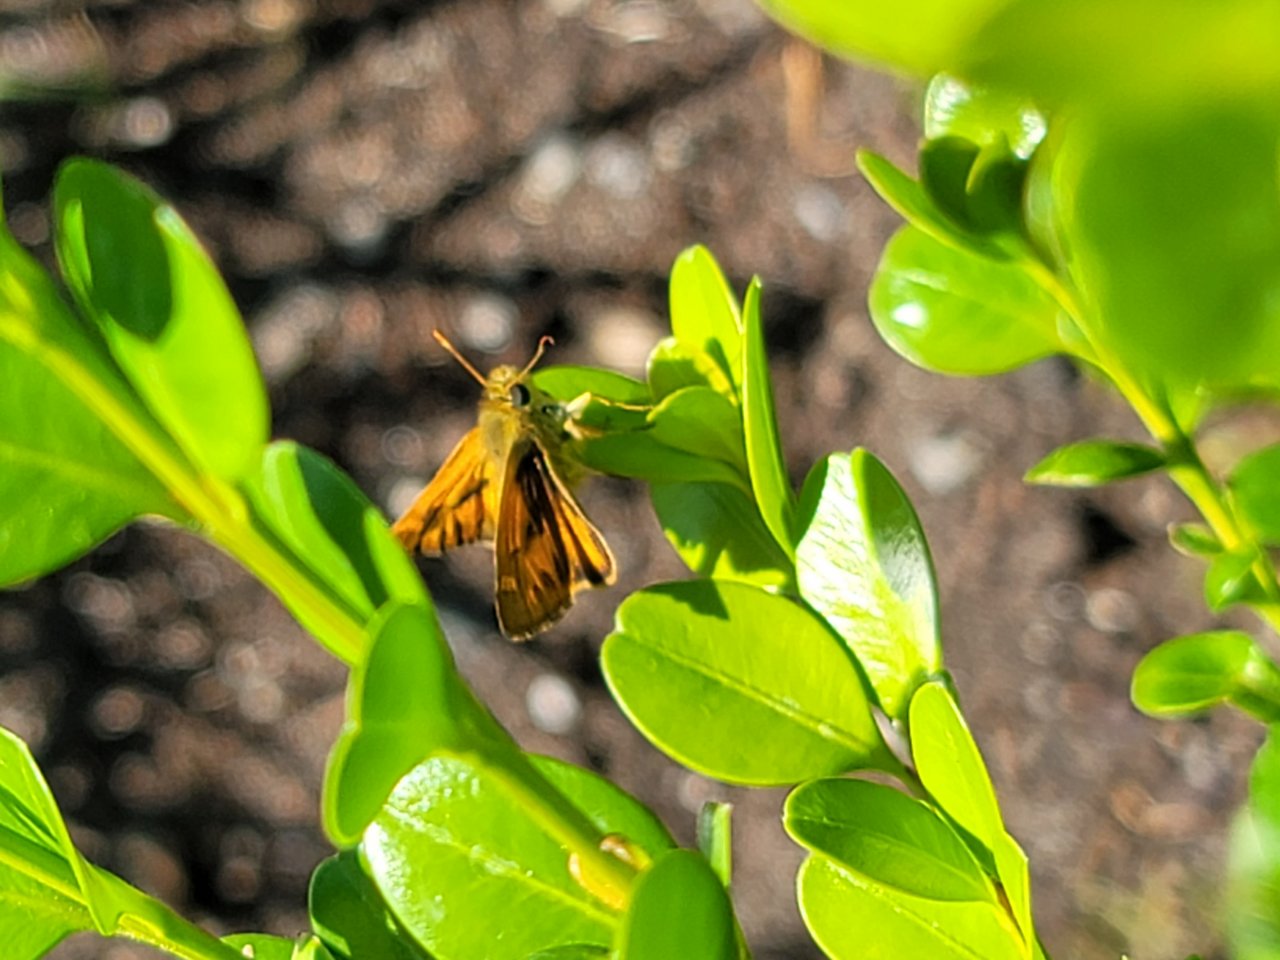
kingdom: Animalia
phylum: Arthropoda
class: Insecta
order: Lepidoptera
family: Hesperiidae
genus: Ochlodes
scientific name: Ochlodes sylvanoides
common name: Woodland Skipper
